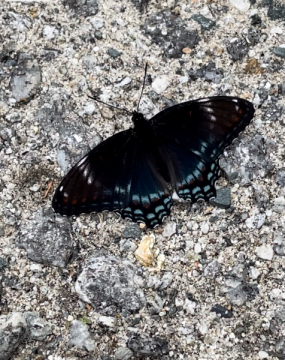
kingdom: Animalia
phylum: Arthropoda
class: Insecta
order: Lepidoptera
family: Nymphalidae
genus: Limenitis
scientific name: Limenitis arthemis
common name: Red-spotted Admiral
